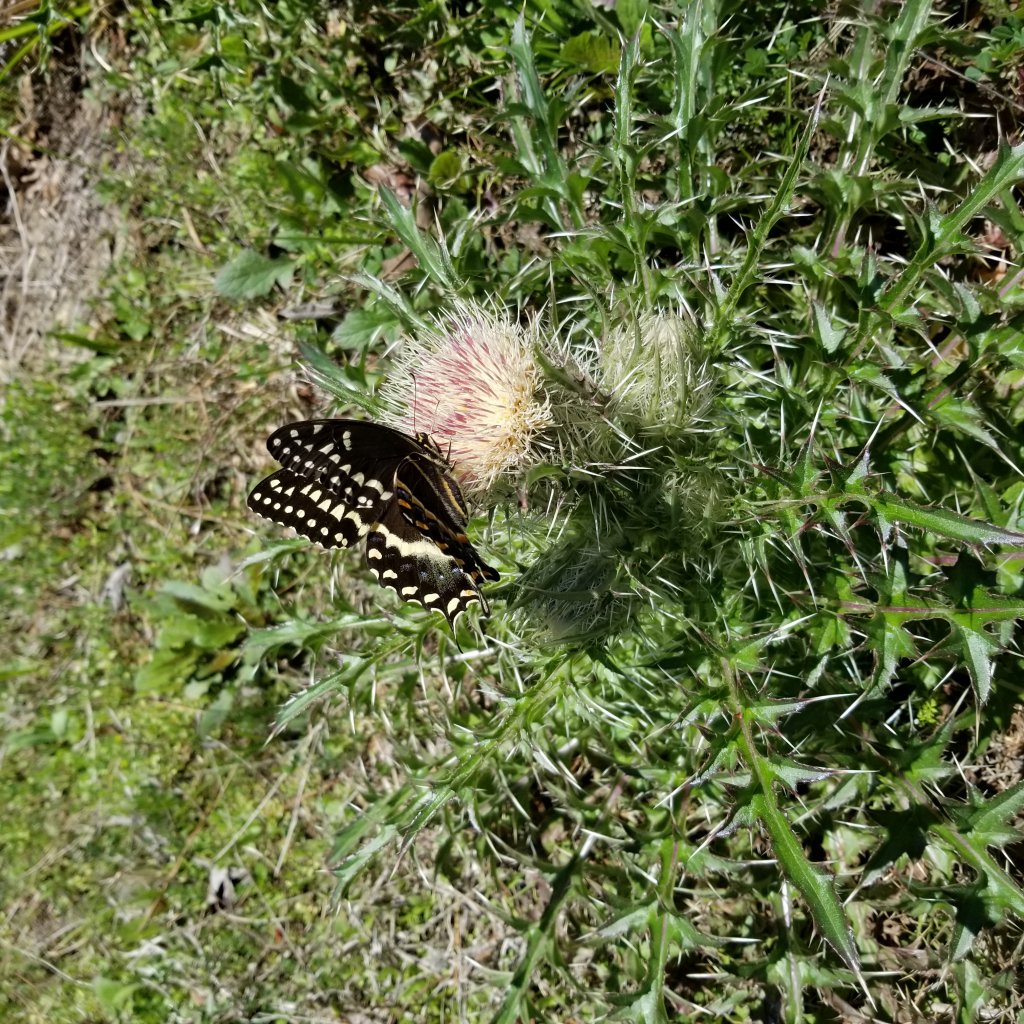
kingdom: Animalia
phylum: Arthropoda
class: Insecta
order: Lepidoptera
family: Papilionidae
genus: Pterourus
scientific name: Pterourus palamedes
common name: Palamedes Swallowtail
